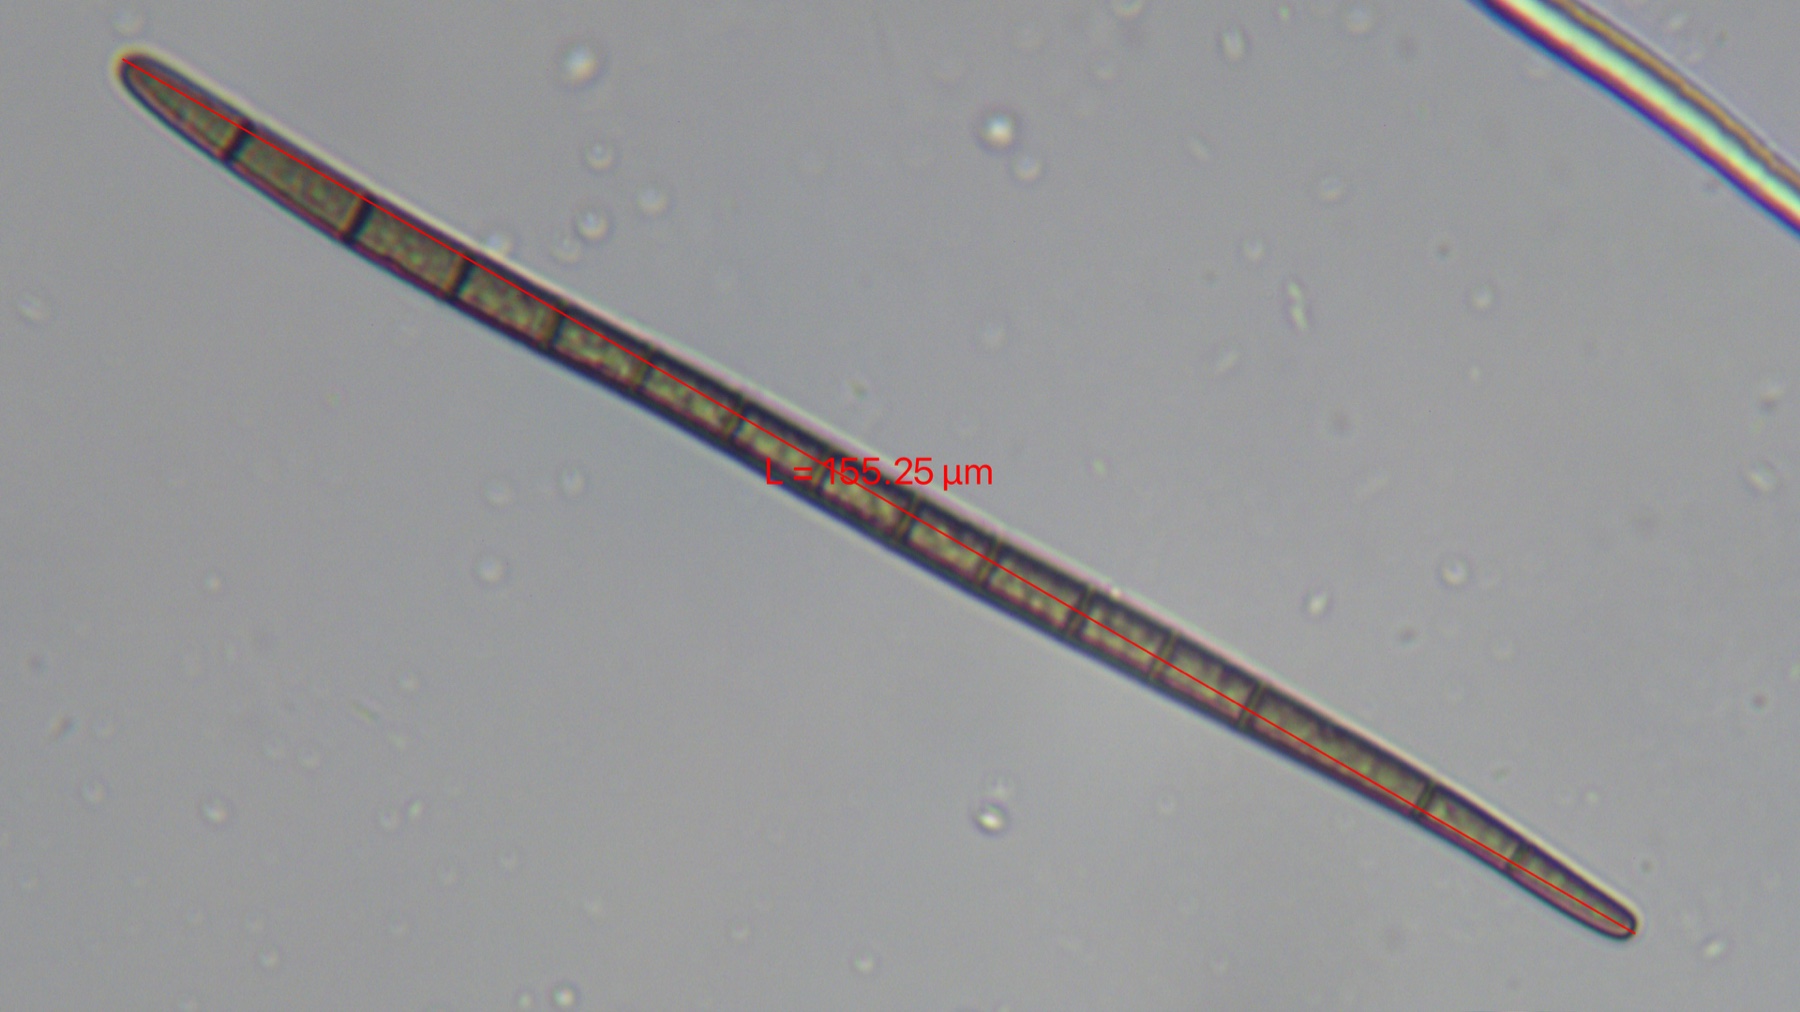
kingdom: Fungi
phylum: Ascomycota
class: Geoglossomycetes
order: Geoglossales
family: Geoglossaceae
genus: Trichoglossum
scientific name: Trichoglossum hirsutum
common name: håret jordtunge
